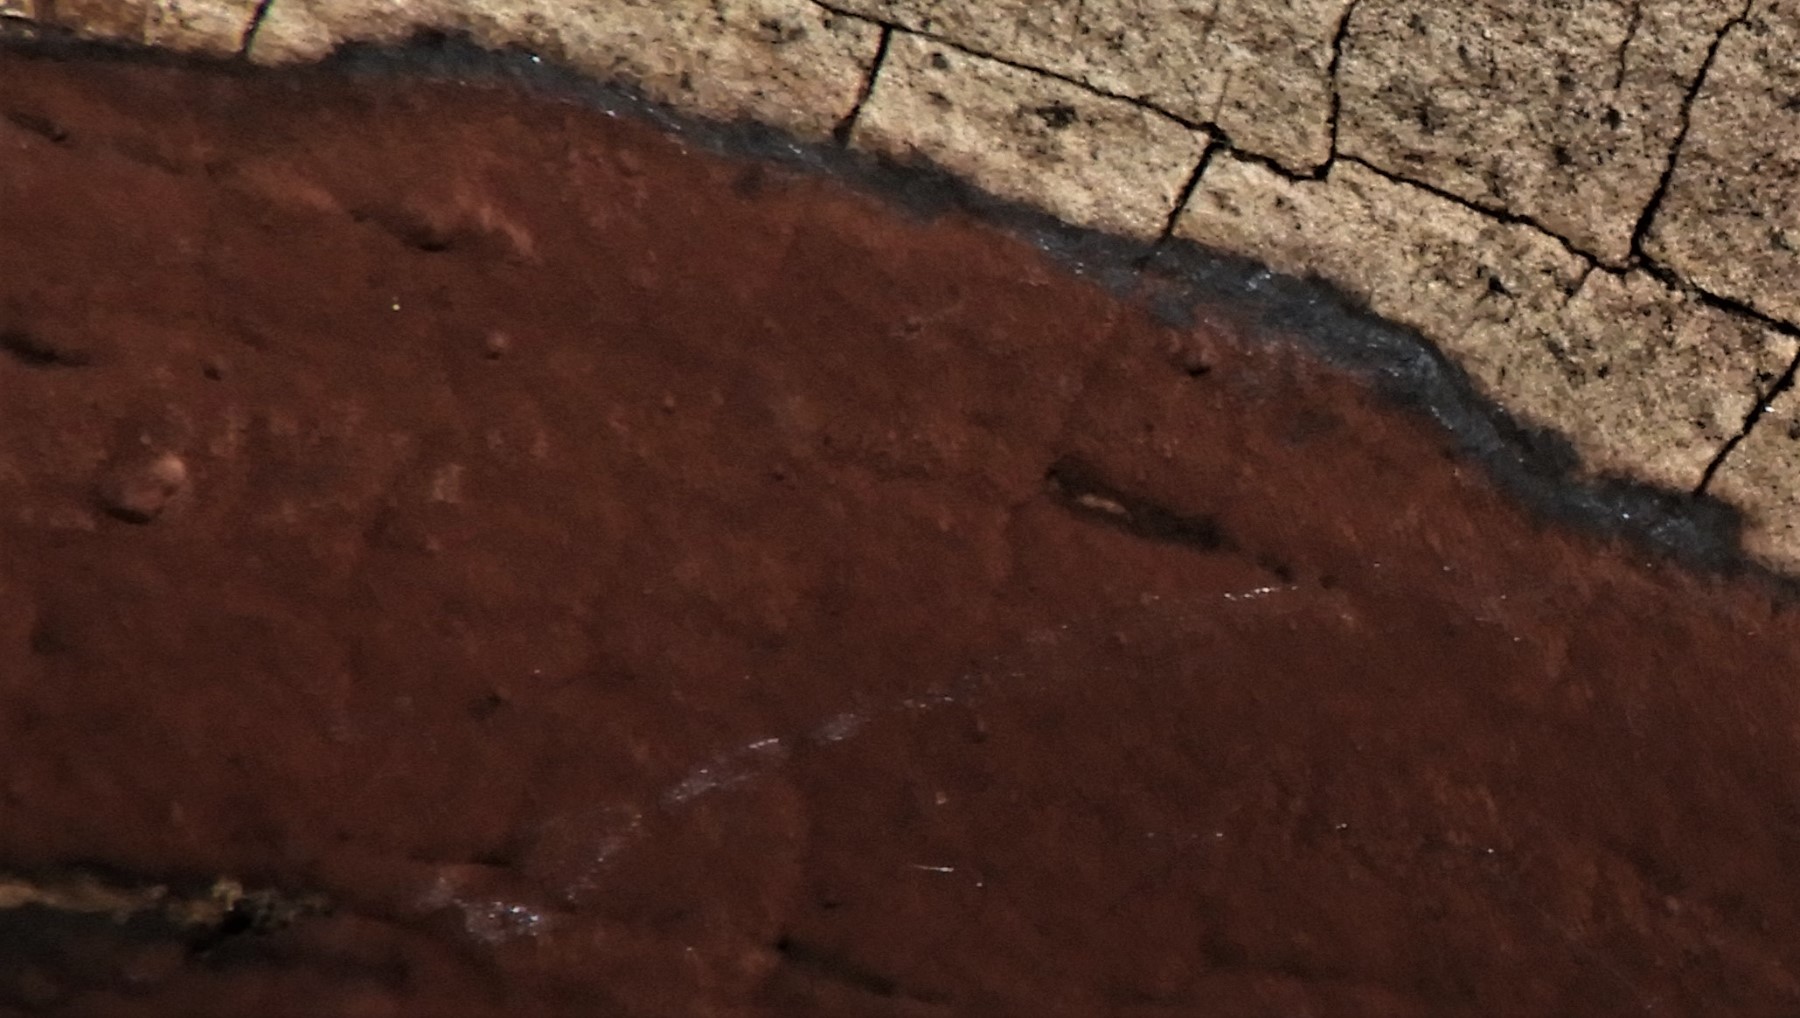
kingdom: Fungi
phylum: Ascomycota
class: Sordariomycetes
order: Xylariales
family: Hypoxylaceae
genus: Hypoxylon
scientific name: Hypoxylon
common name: kulbær
